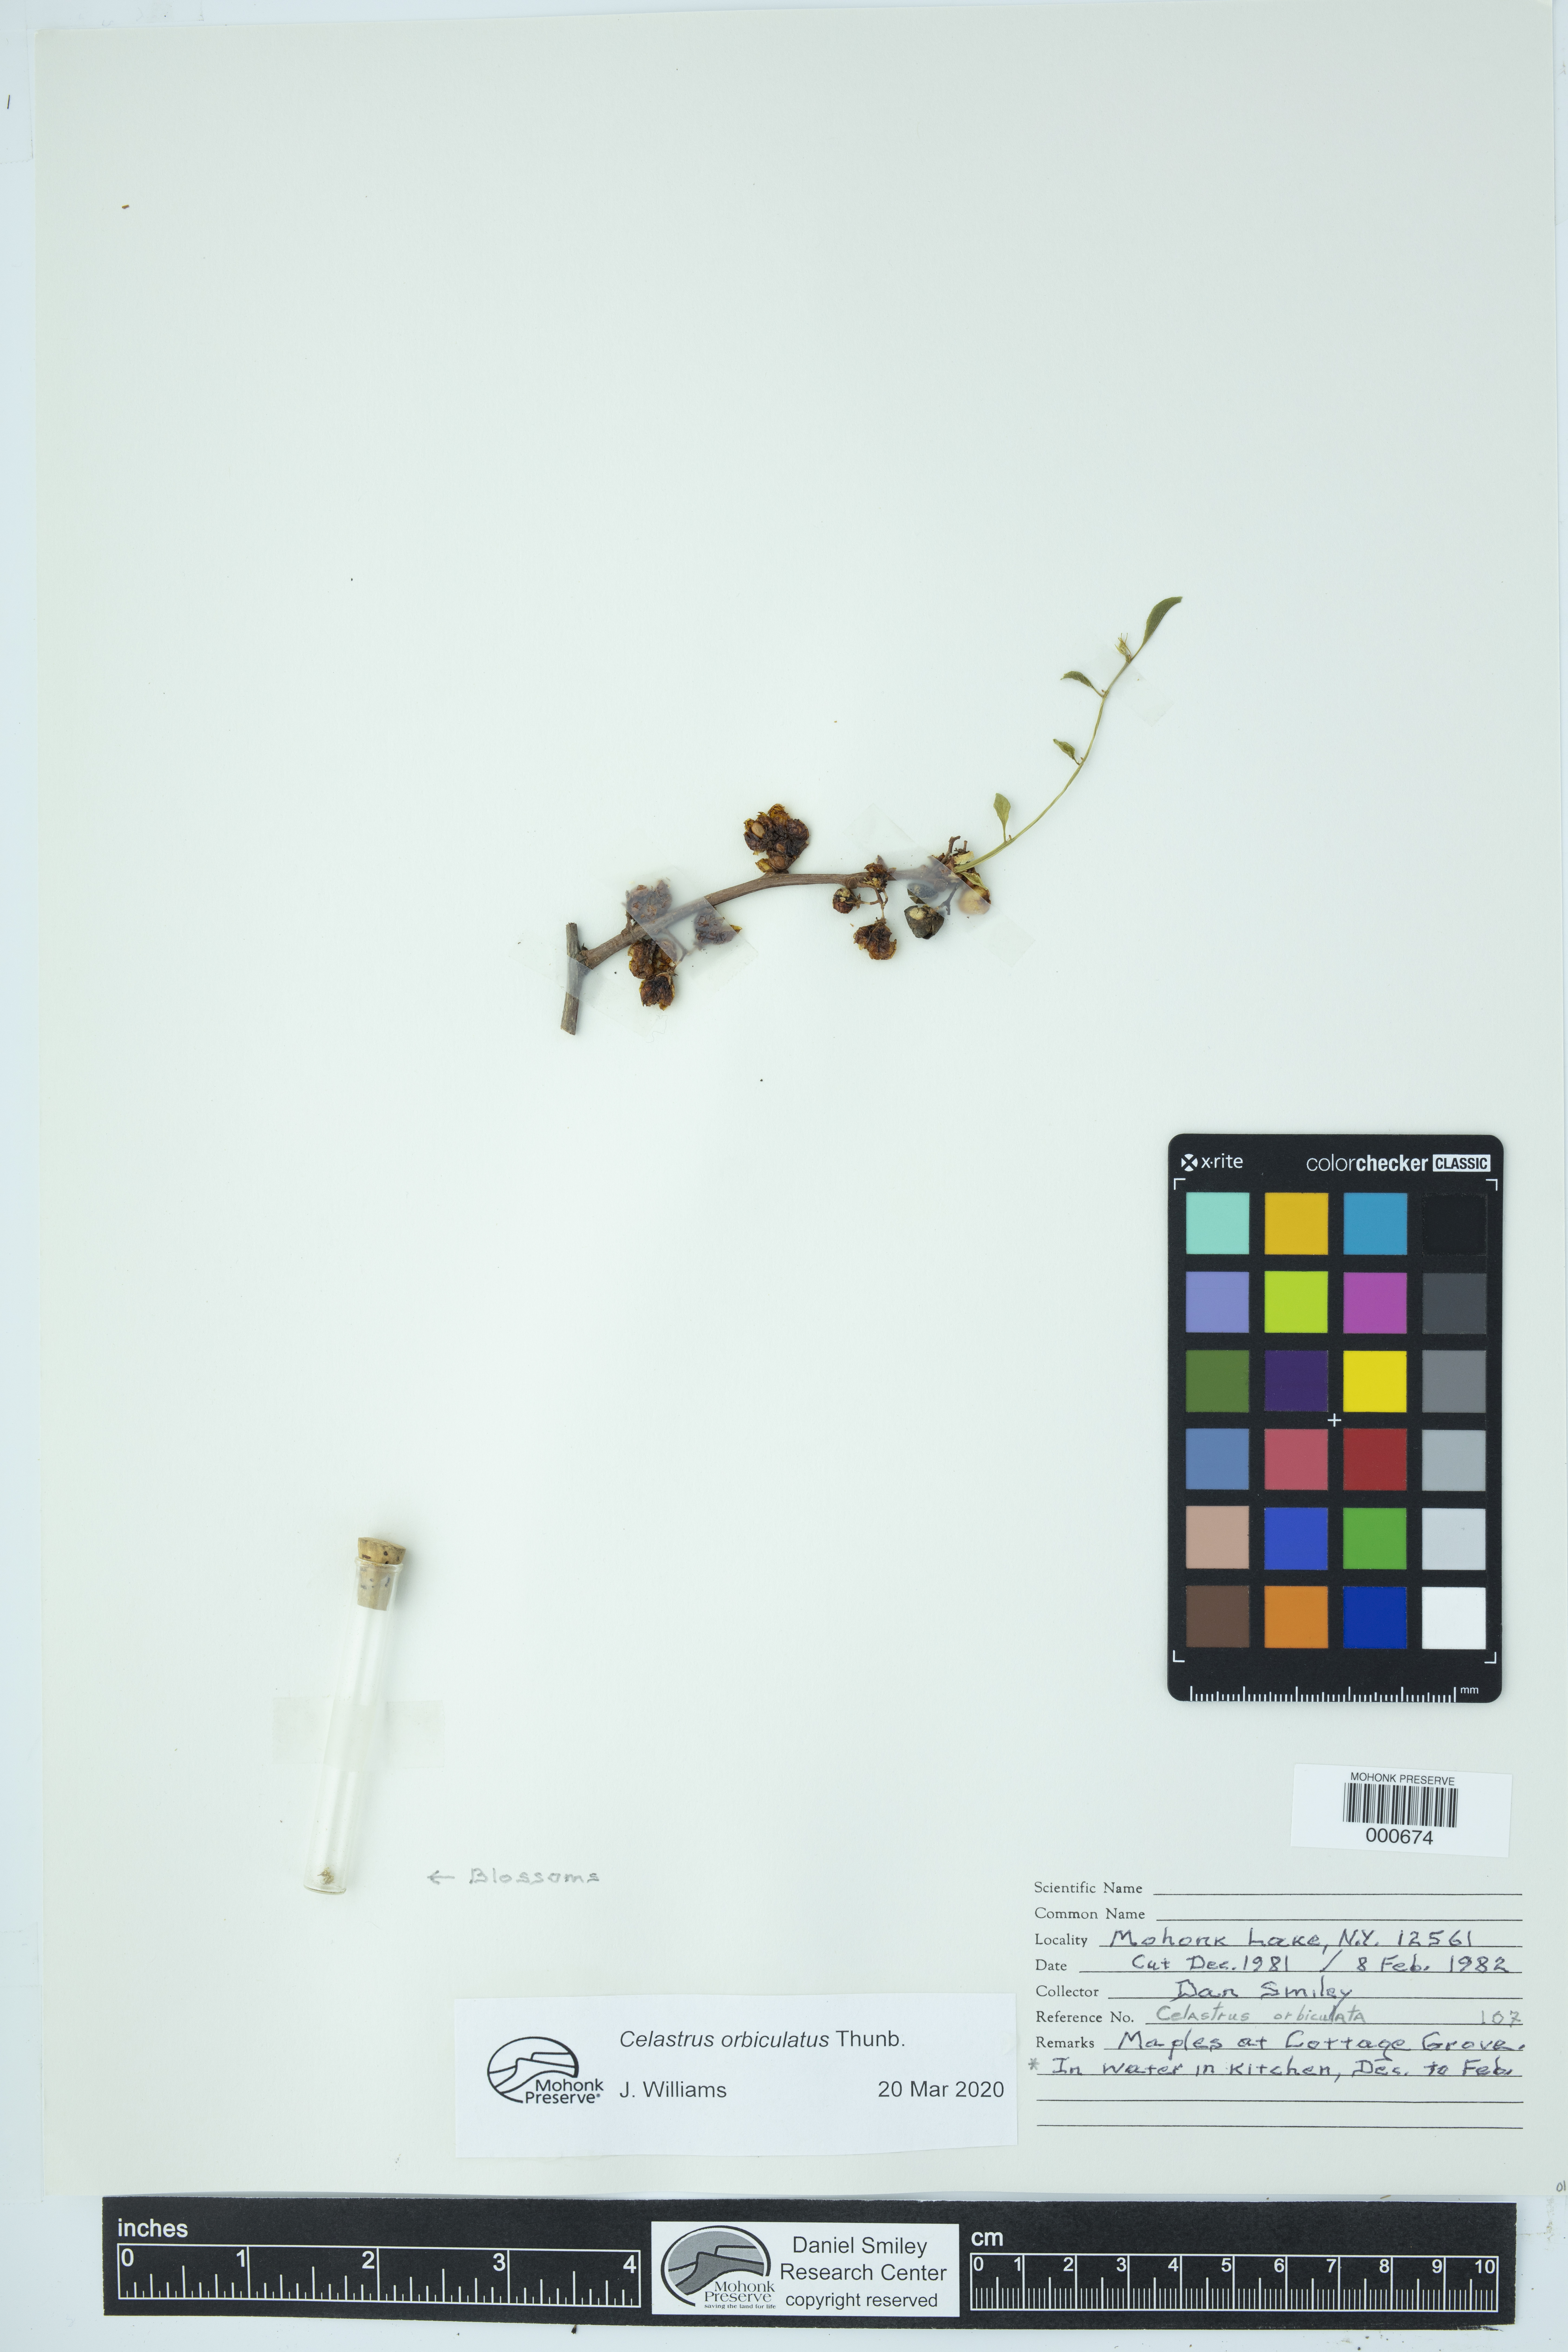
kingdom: Plantae
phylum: Tracheophyta
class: Magnoliopsida
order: Celastrales
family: Celastraceae
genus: Celastrus
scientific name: Celastrus orbiculatus
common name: Oriental bittersweet
